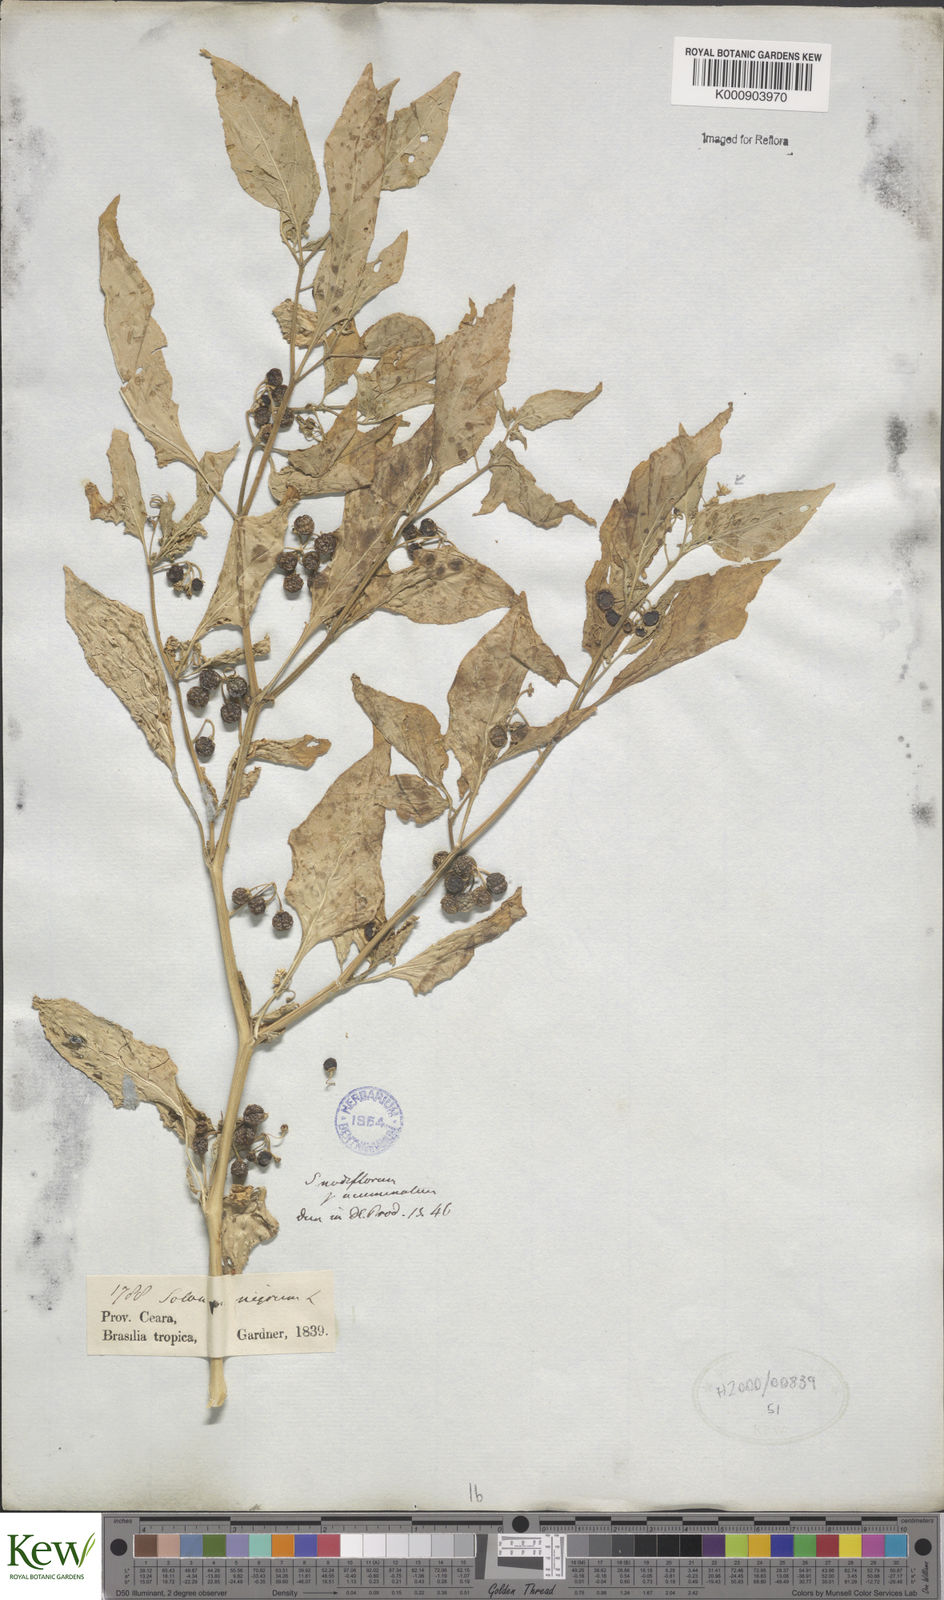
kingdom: Plantae
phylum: Tracheophyta
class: Magnoliopsida
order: Solanales
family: Solanaceae
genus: Solanum
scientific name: Solanum americanum
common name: American black nightshade
